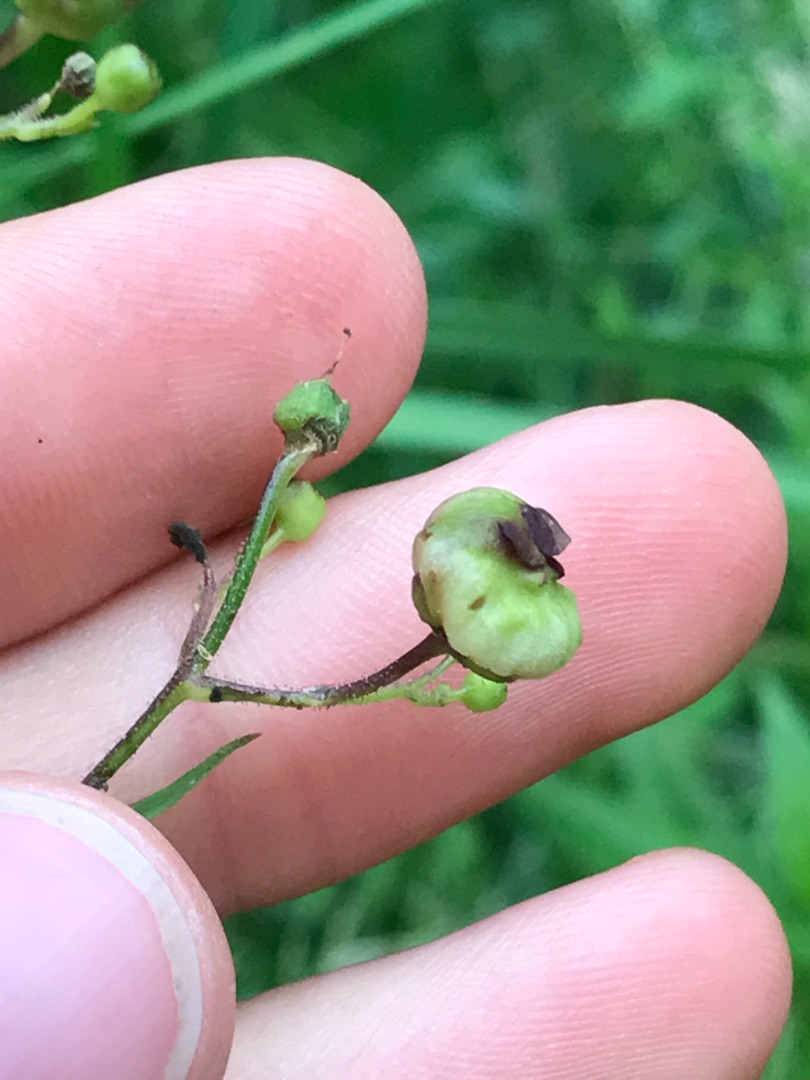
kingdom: Animalia
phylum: Arthropoda
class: Insecta
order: Diptera
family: Cecidomyiidae
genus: Contarinia
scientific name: Contarinia scrophulariae
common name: Brunrodsgalmyg
